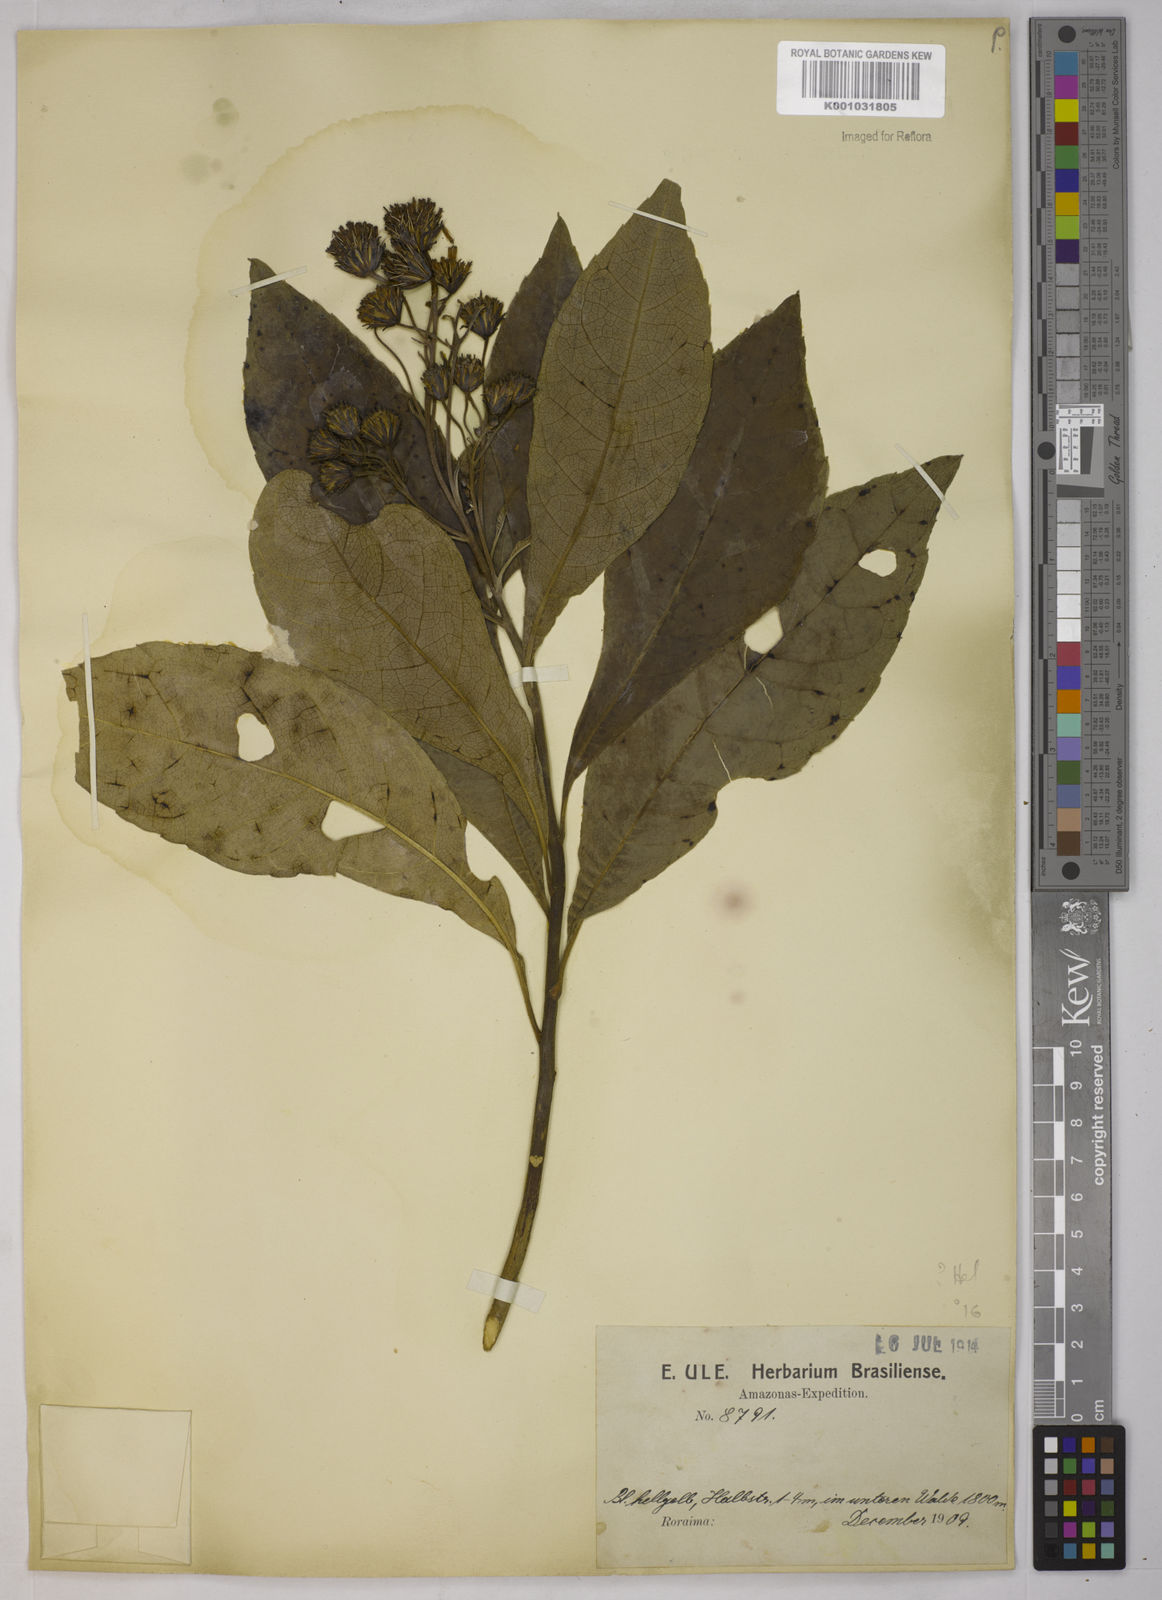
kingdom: Plantae
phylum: Tracheophyta
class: Magnoliopsida
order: Asterales
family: Asteraceae
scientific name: Asteraceae
